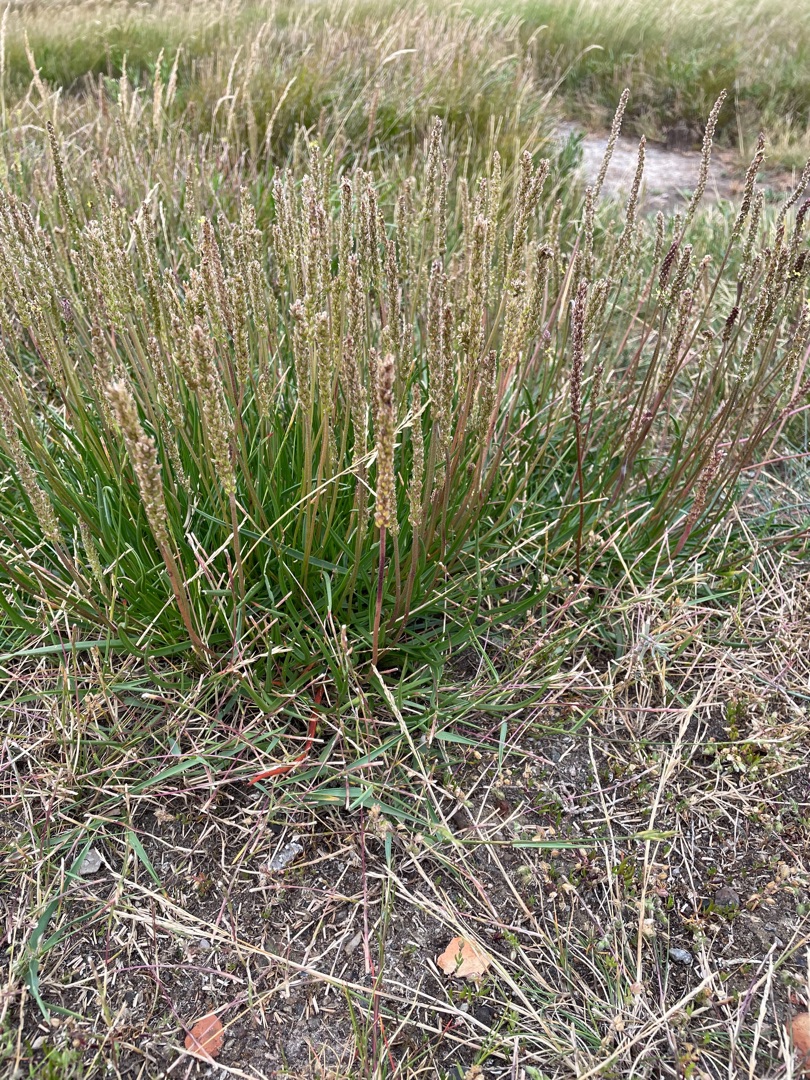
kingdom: Plantae
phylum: Tracheophyta
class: Magnoliopsida
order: Lamiales
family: Plantaginaceae
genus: Plantago
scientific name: Plantago maritima
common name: Strand-vejbred
